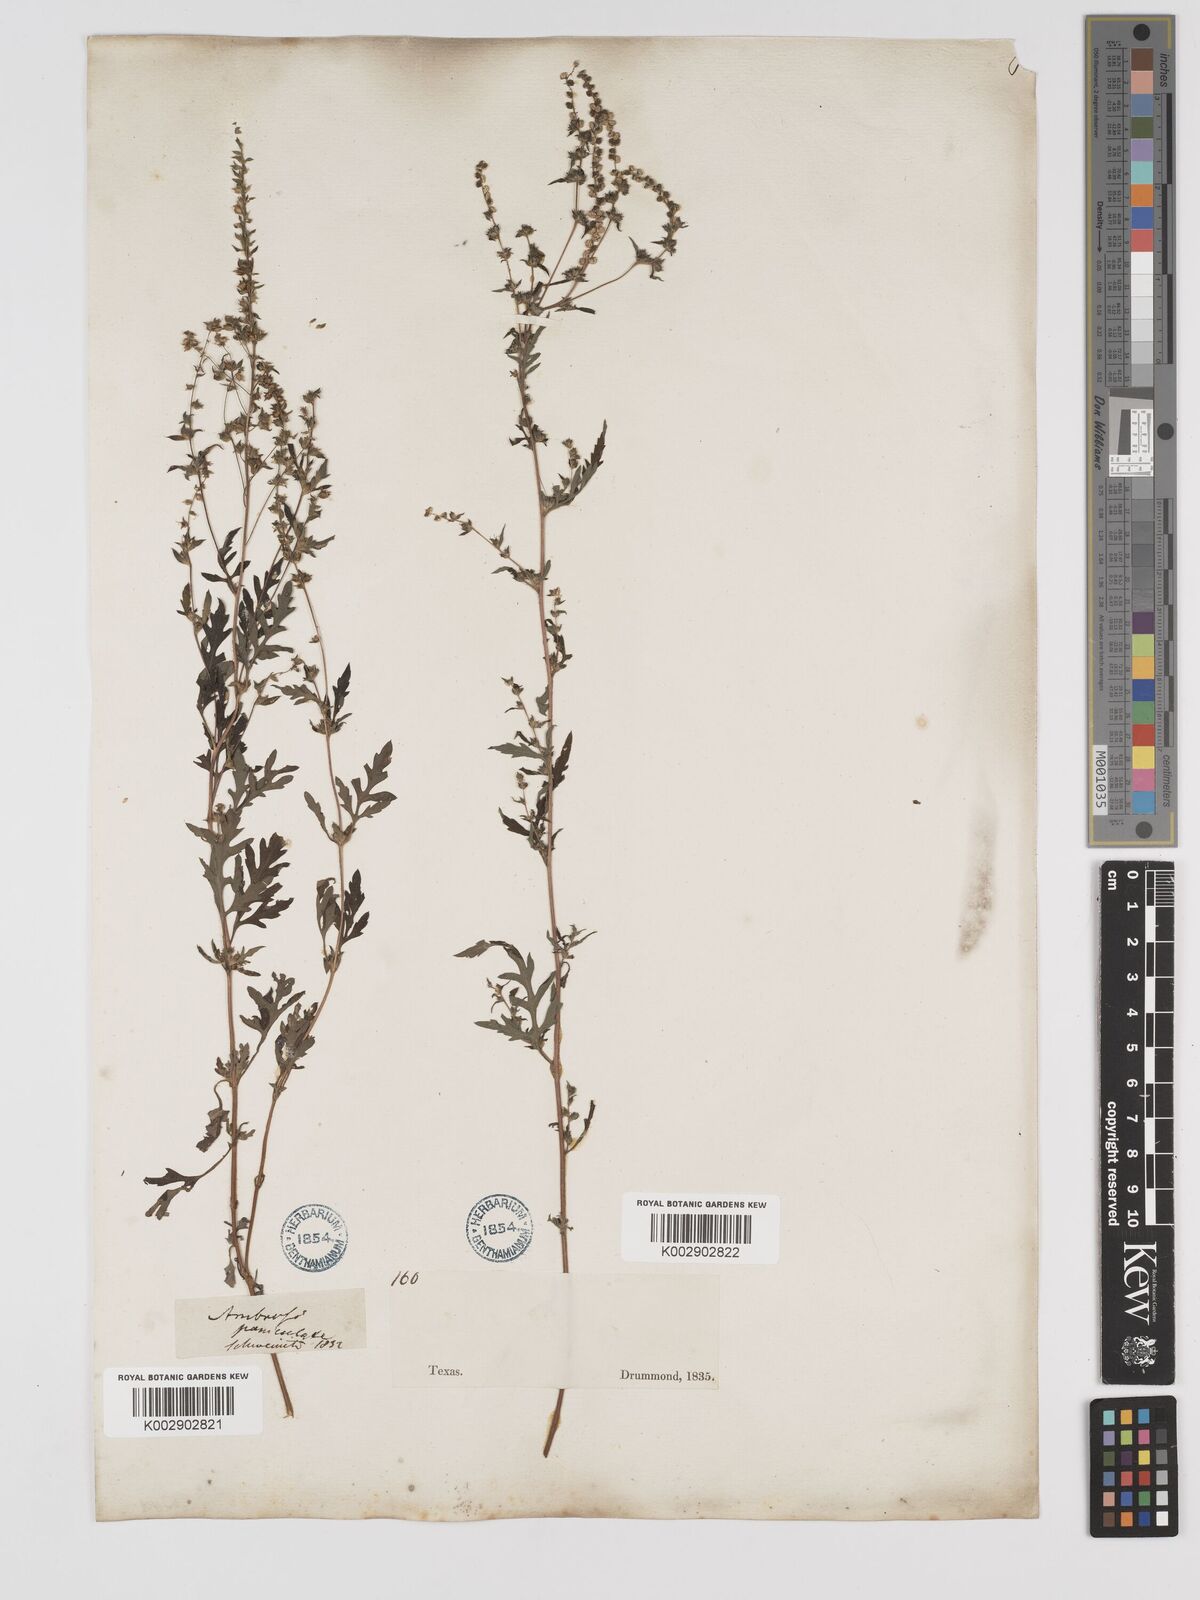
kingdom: Plantae
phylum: Tracheophyta
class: Magnoliopsida
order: Asterales
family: Asteraceae
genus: Ambrosia
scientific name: Ambrosia artemisiifolia
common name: Annual ragweed
